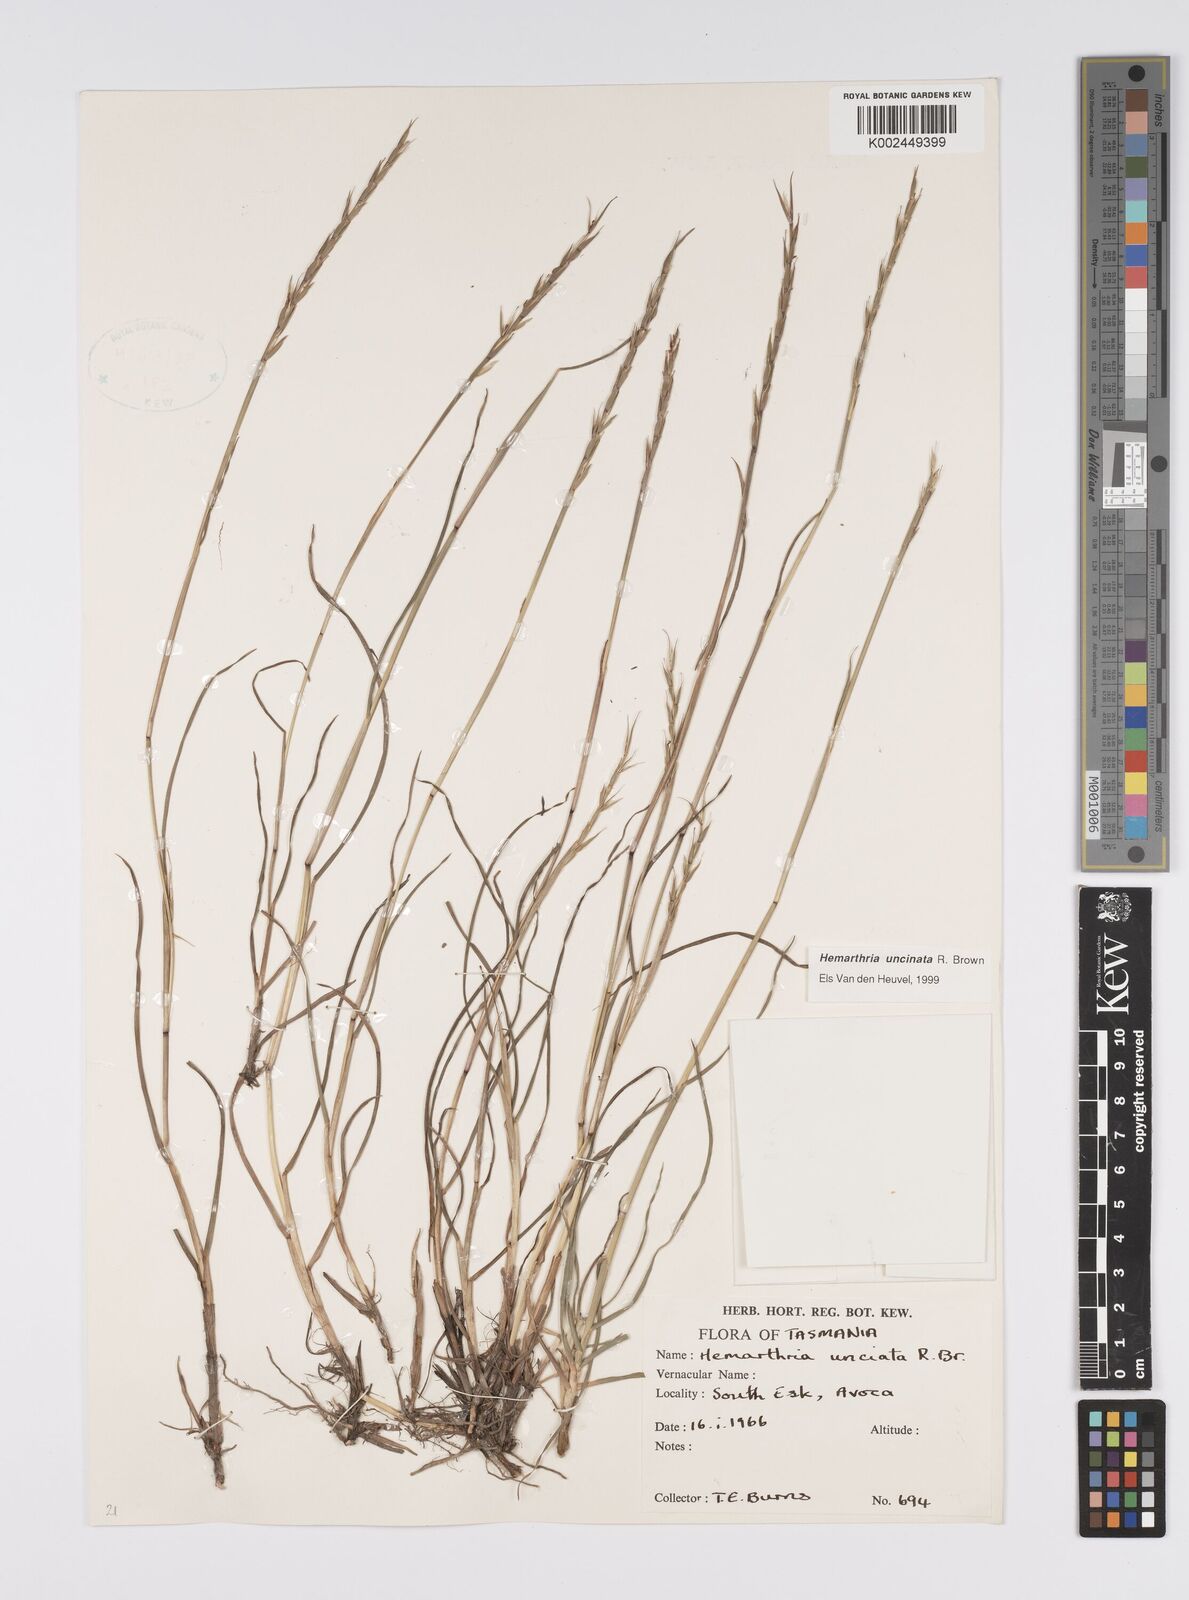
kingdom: Plantae
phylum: Tracheophyta
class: Liliopsida
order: Poales
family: Poaceae
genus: Hemarthria
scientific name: Hemarthria uncinata
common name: Matgrass
